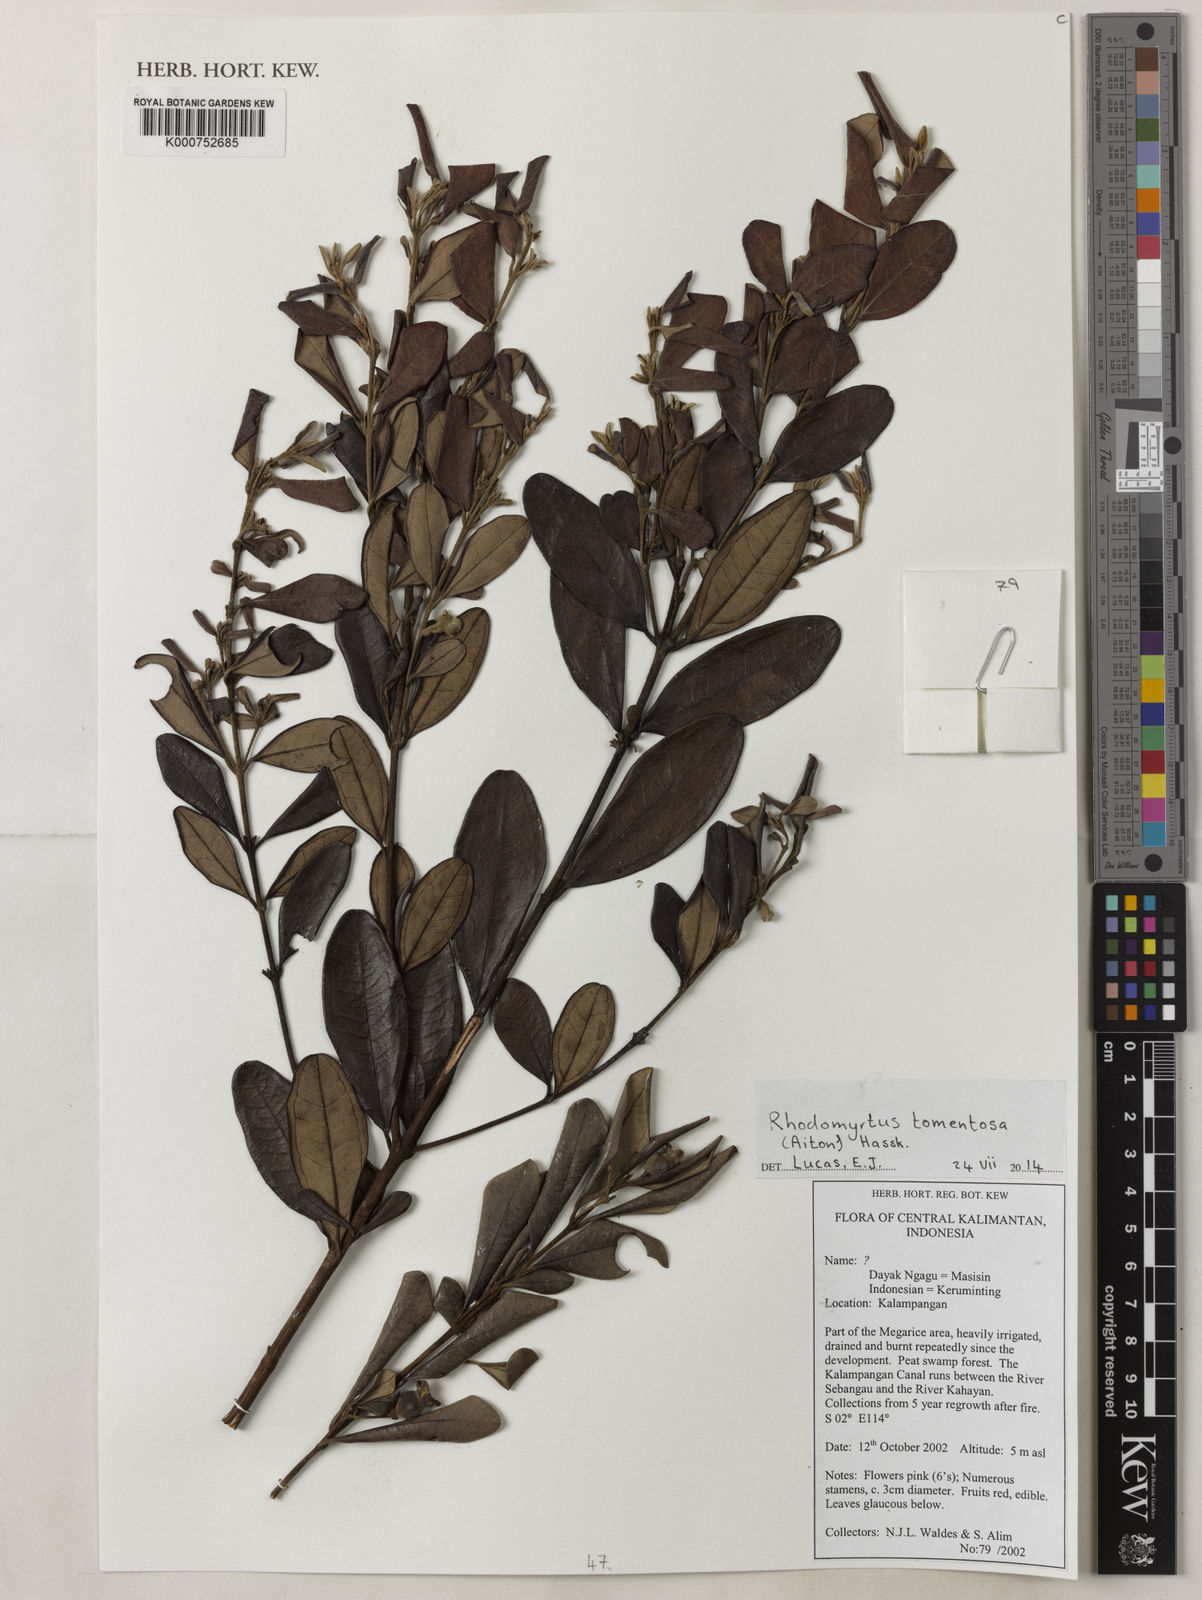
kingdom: Plantae
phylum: Tracheophyta
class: Magnoliopsida
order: Myrtales
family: Myrtaceae
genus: Rhodomyrtus
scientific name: Rhodomyrtus tomentosa
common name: Rose myrtle
